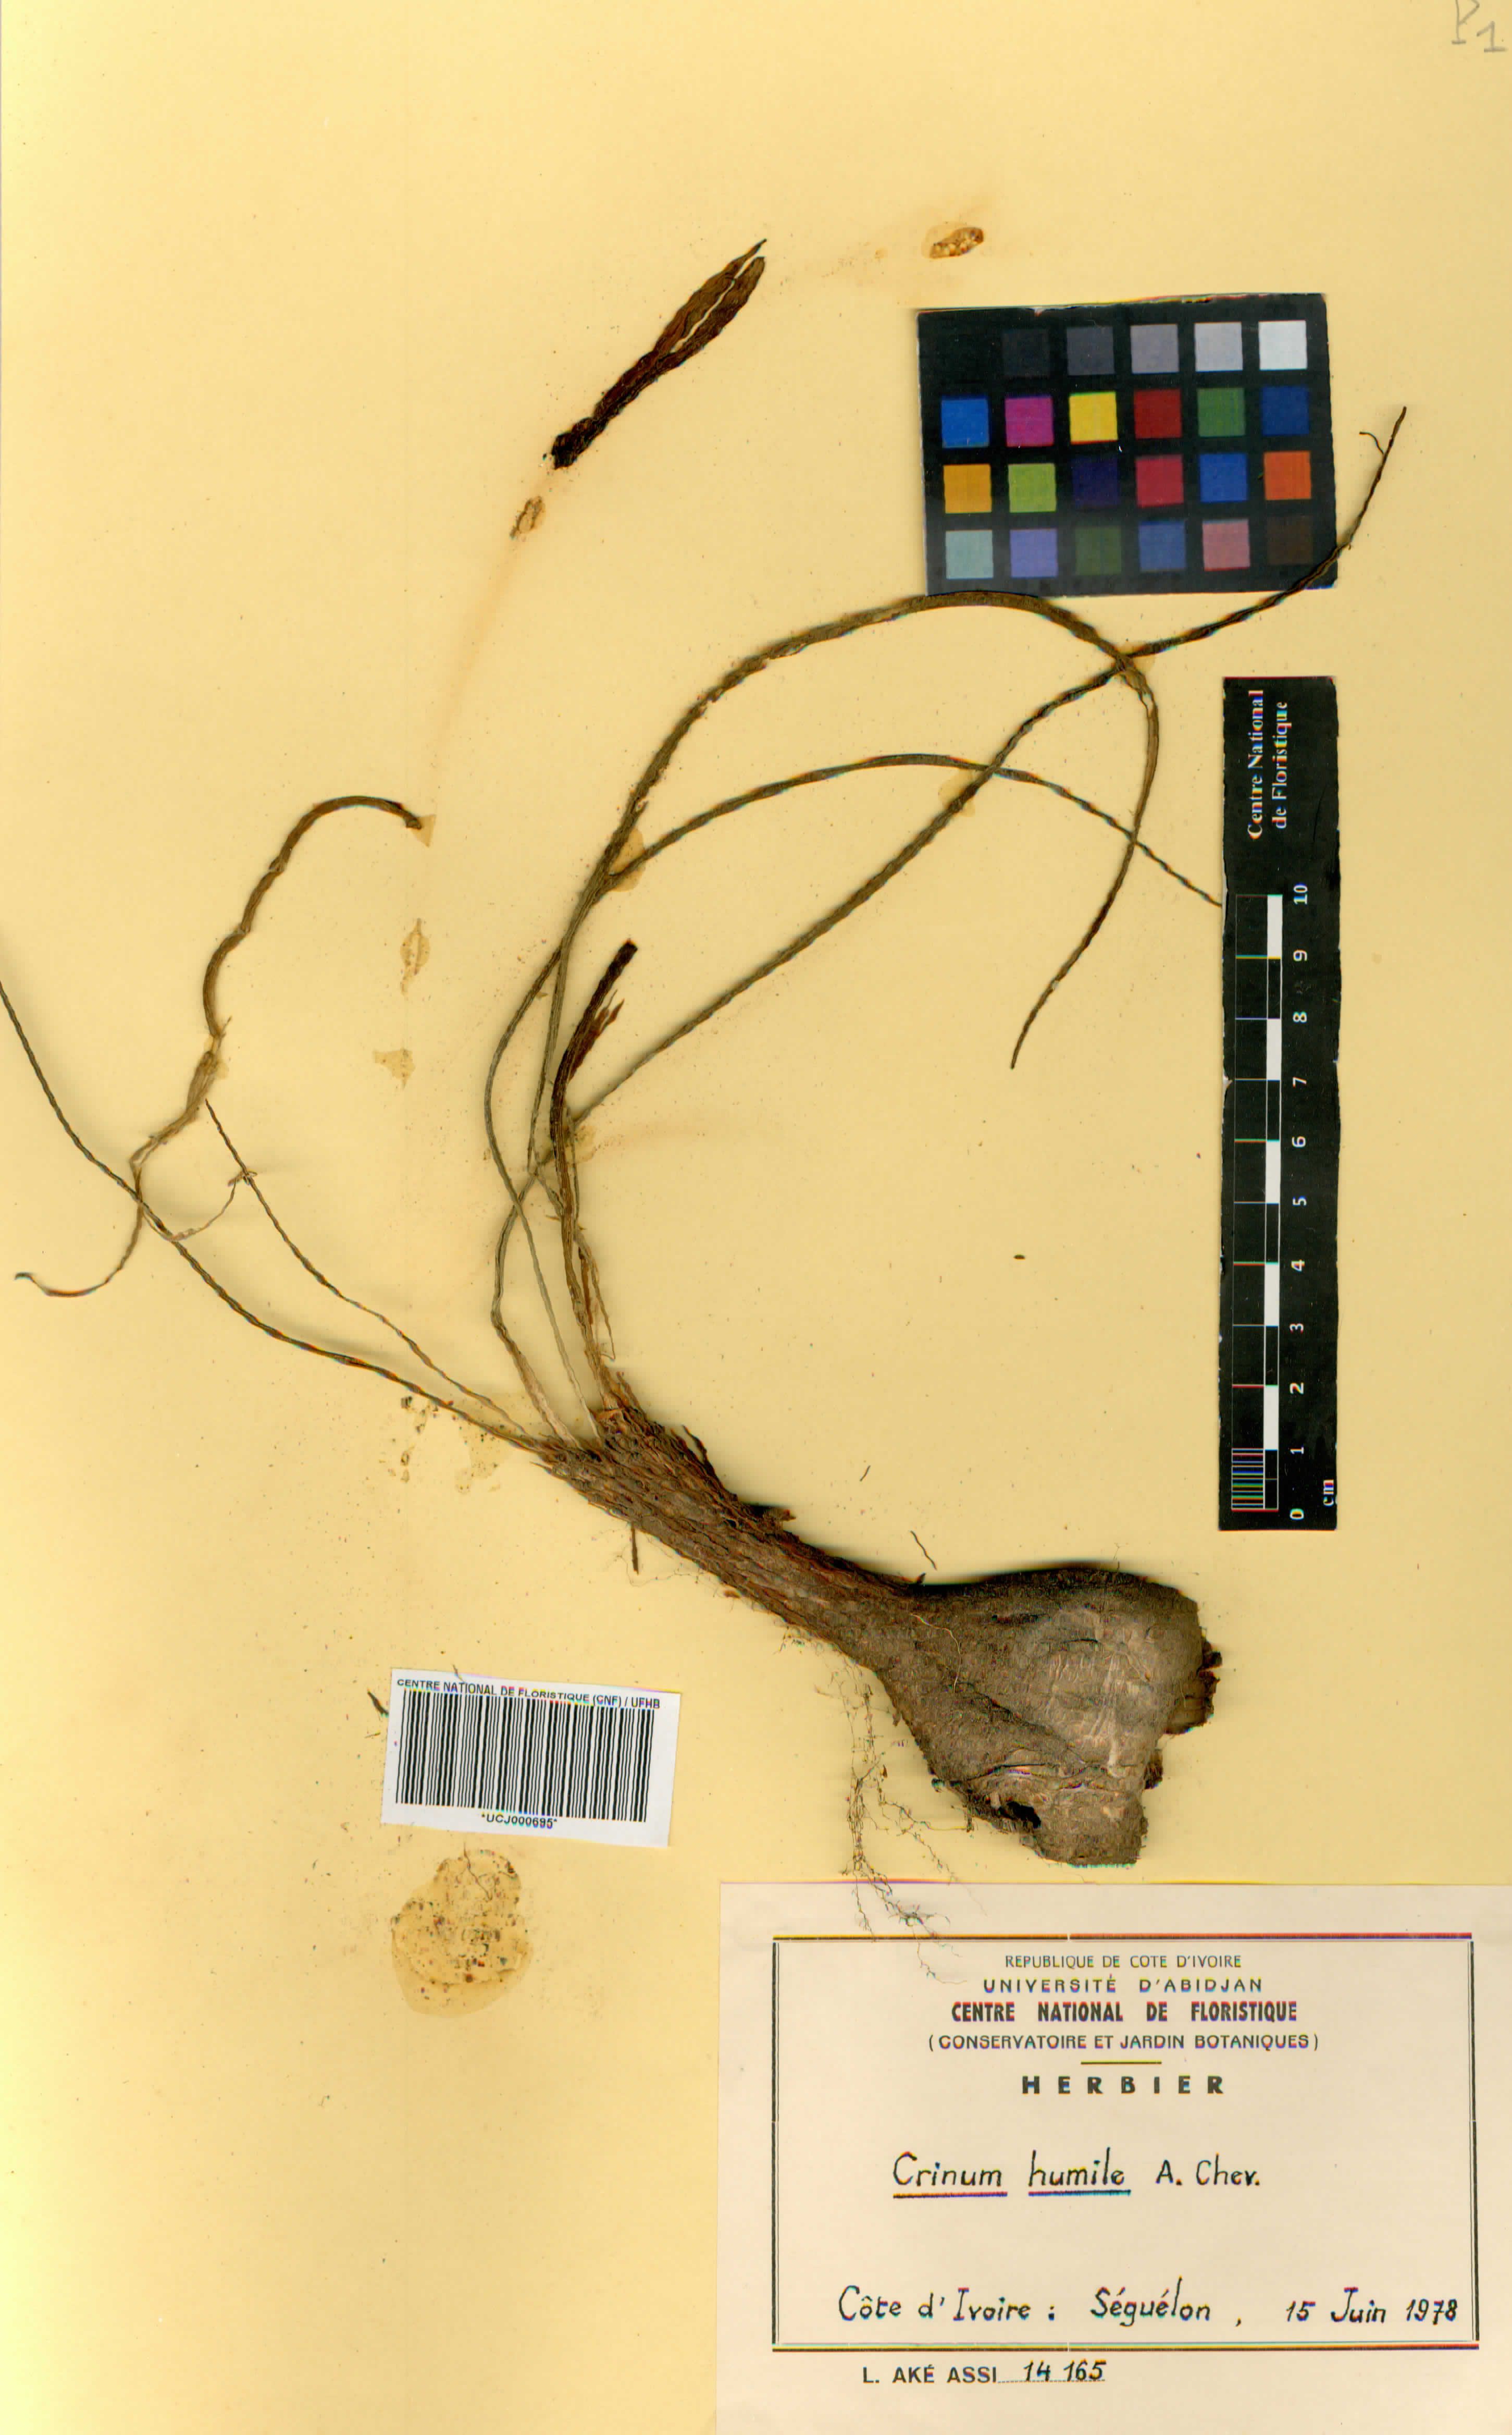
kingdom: Plantae
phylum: Tracheophyta
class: Liliopsida
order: Asparagales
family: Amaryllidaceae
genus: Crinum
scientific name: Crinum nubicum
